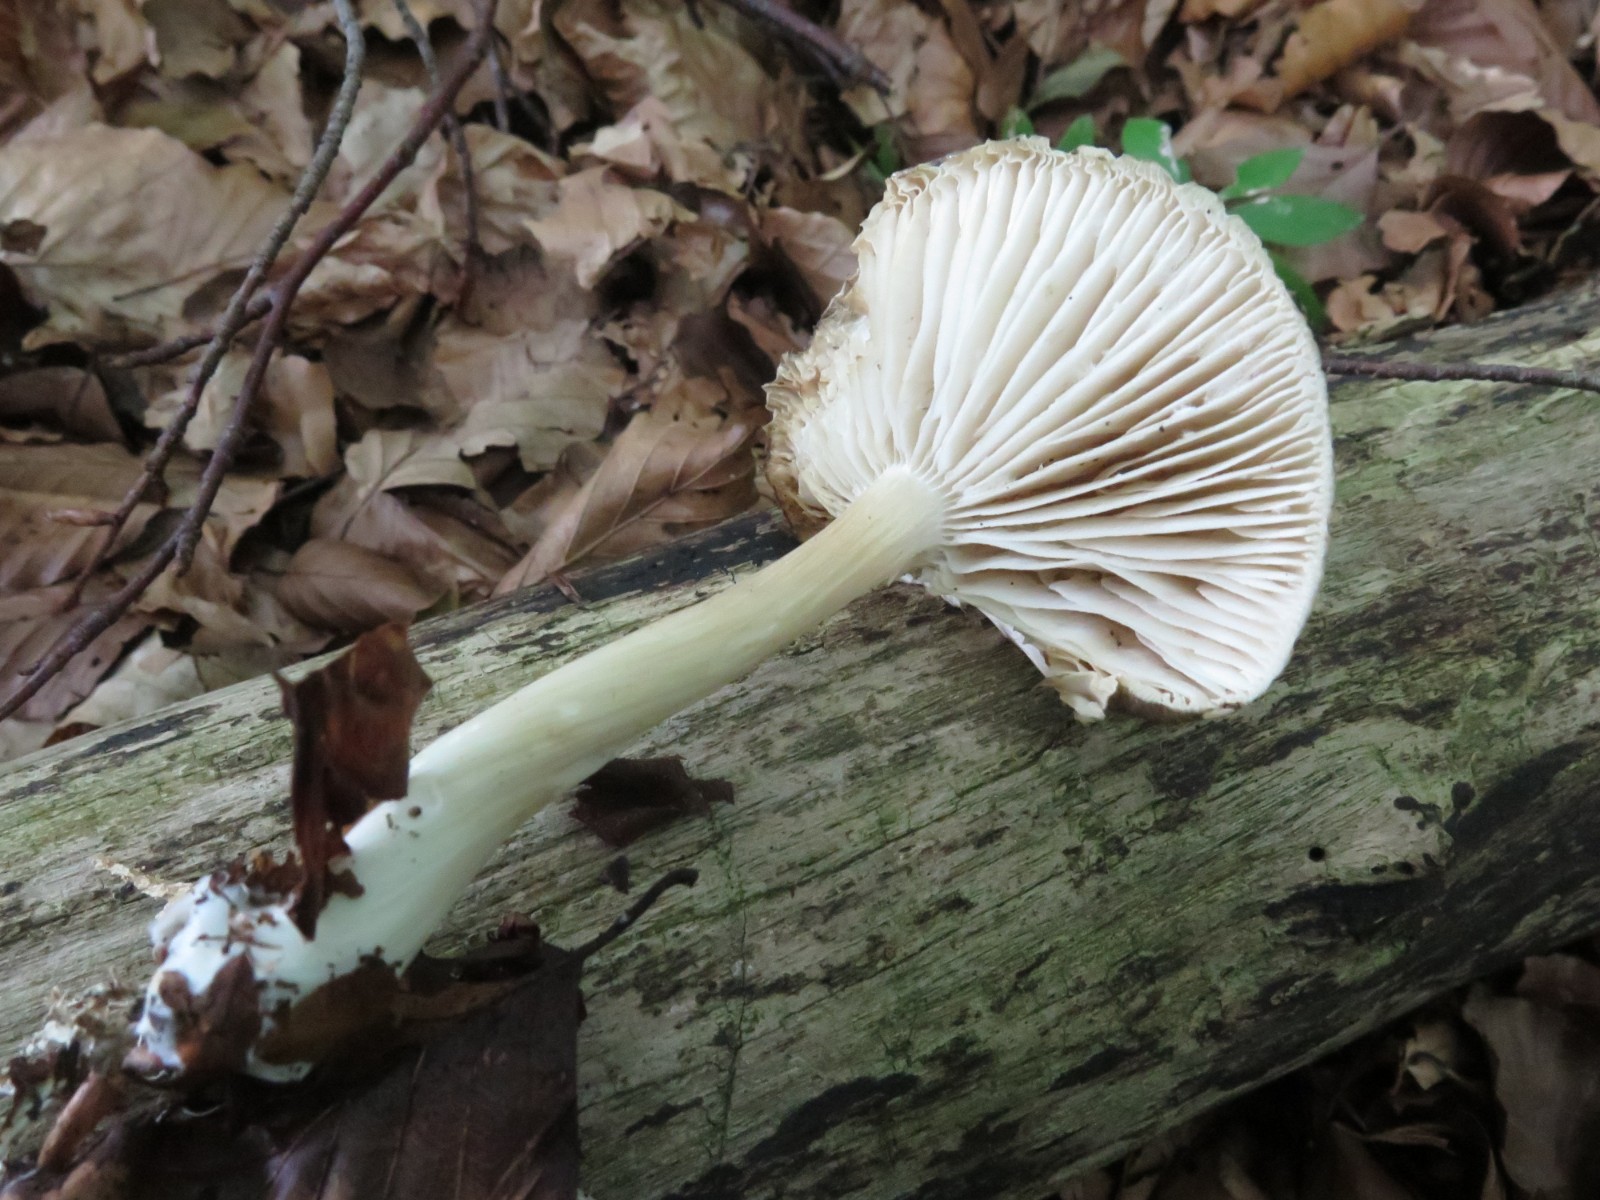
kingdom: Fungi
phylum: Basidiomycota
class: Agaricomycetes
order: Agaricales
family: Tricholomataceae
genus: Megacollybia
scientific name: Megacollybia platyphylla
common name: bredbladet væbnerhat
